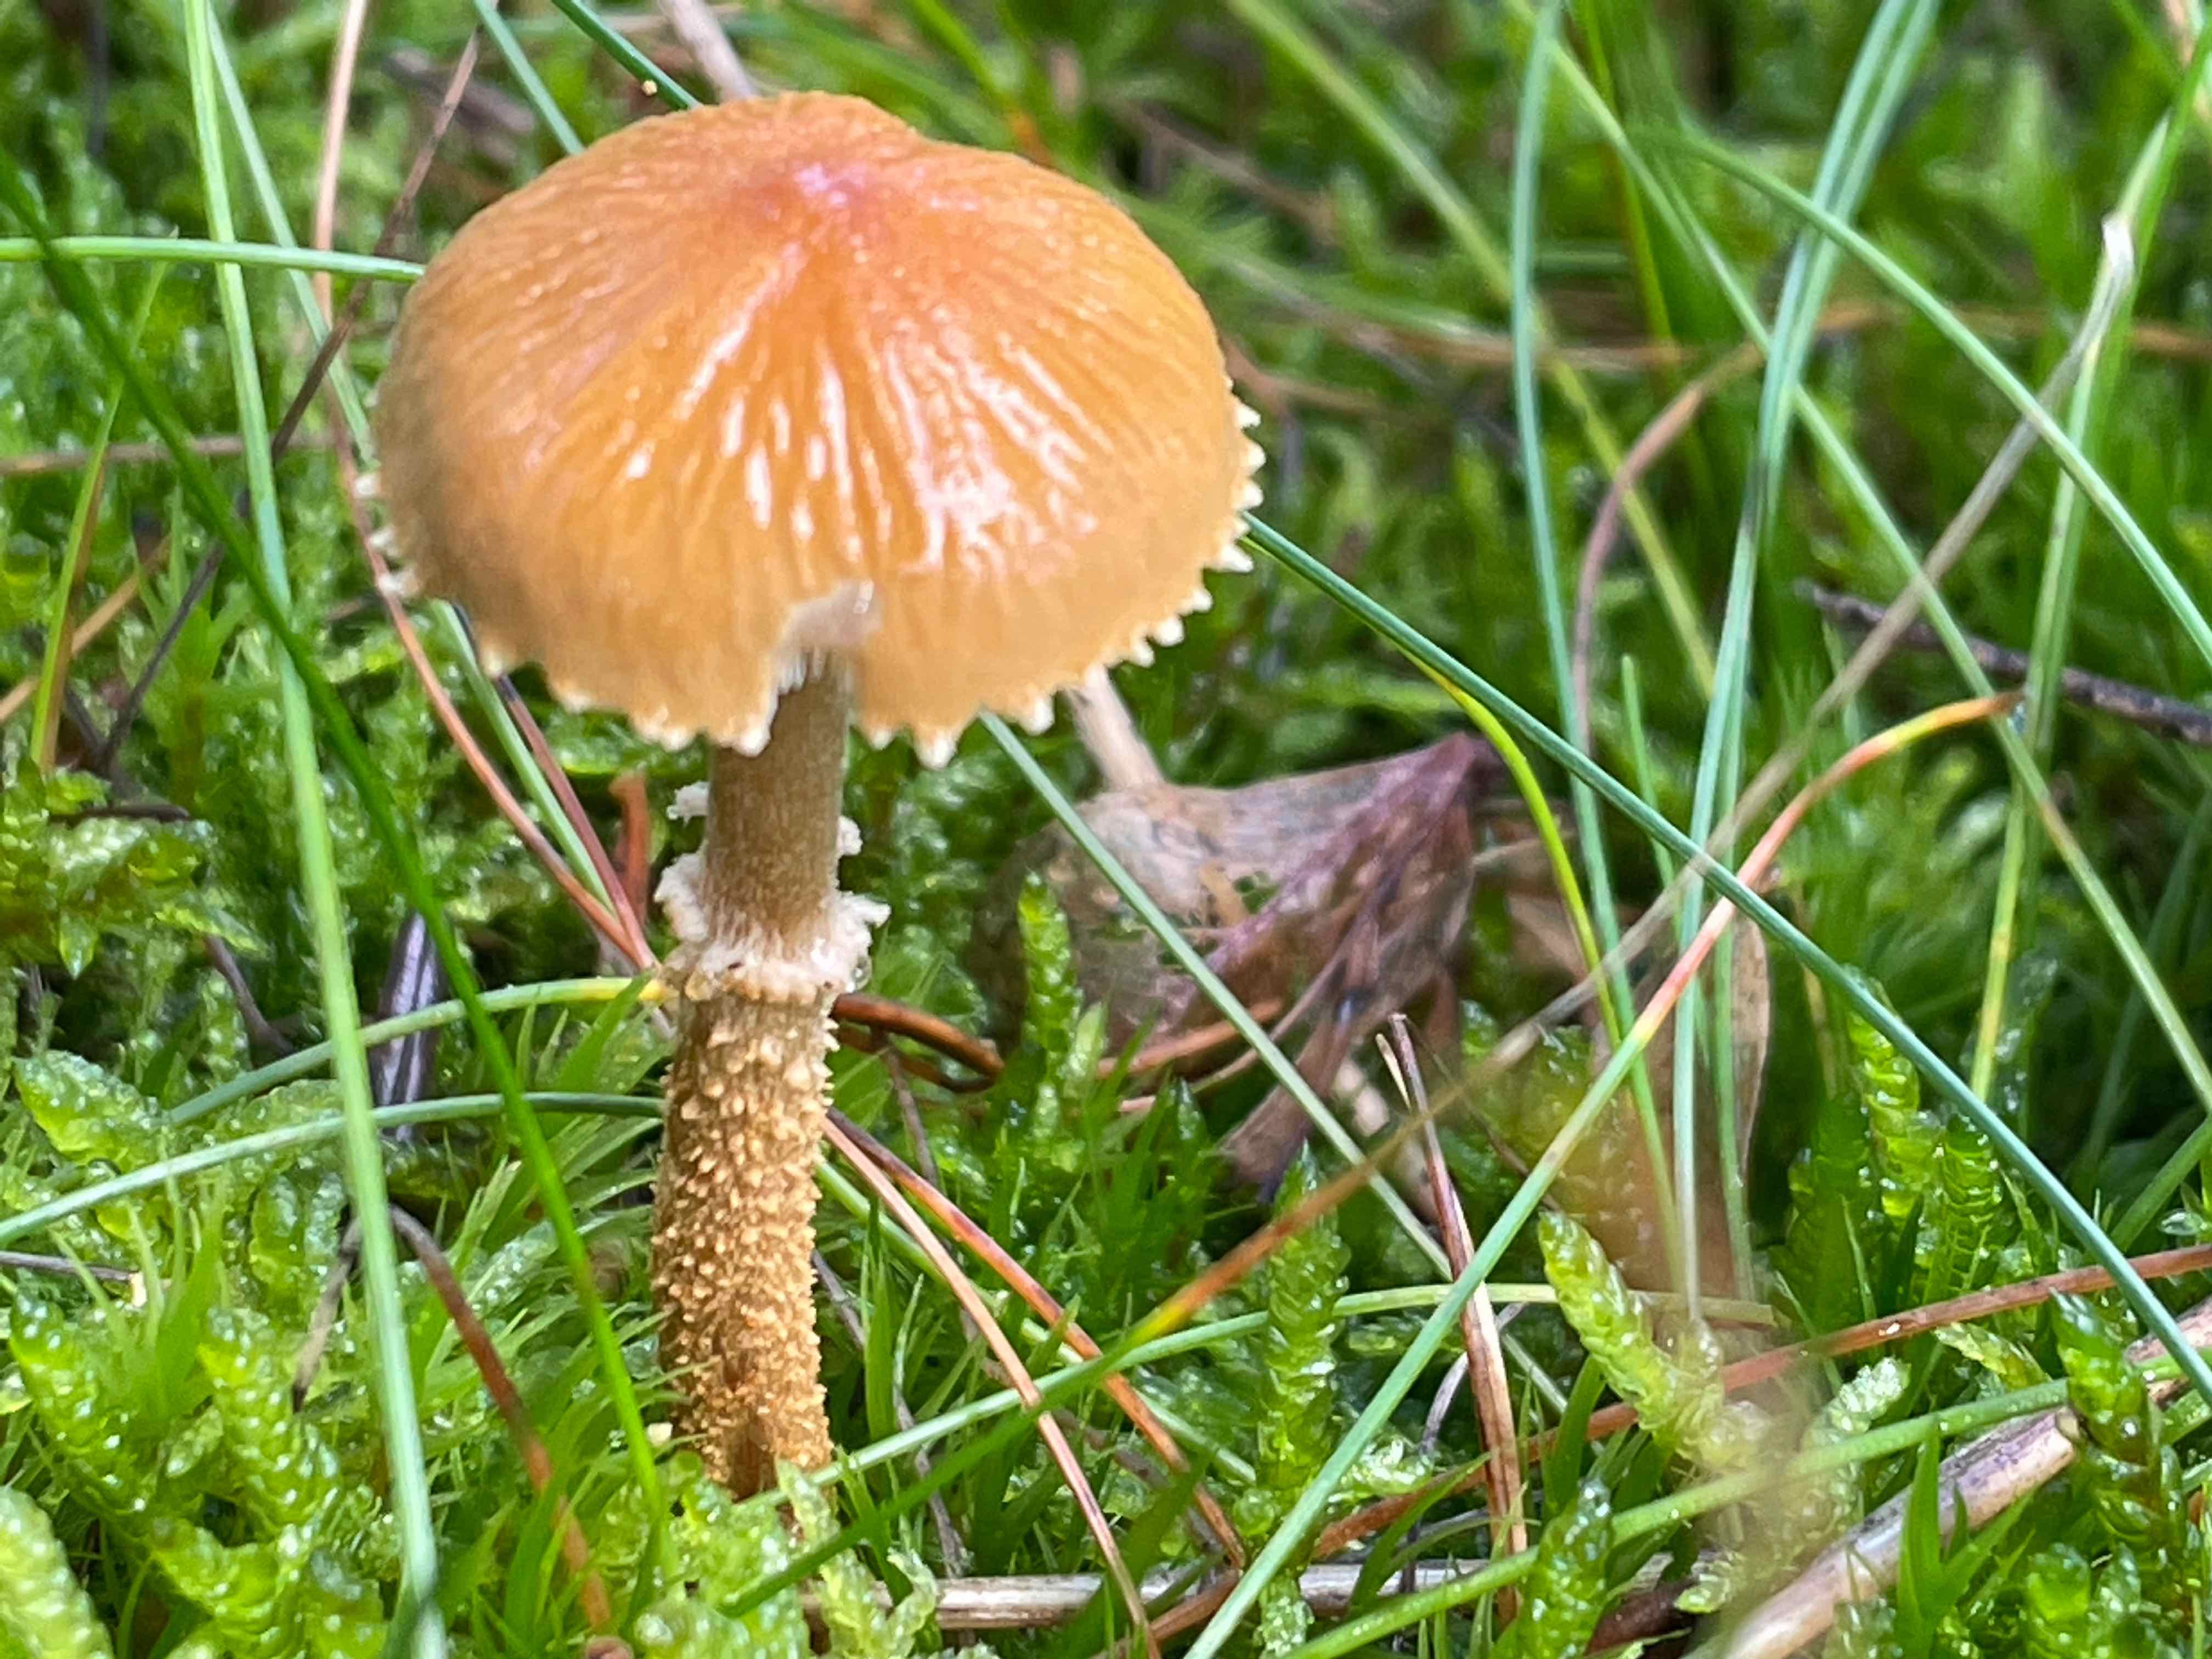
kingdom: Fungi
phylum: Basidiomycota
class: Agaricomycetes
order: Agaricales
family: Tricholomataceae
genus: Cystoderma
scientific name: Cystoderma amianthinum
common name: okkergul grynhat
